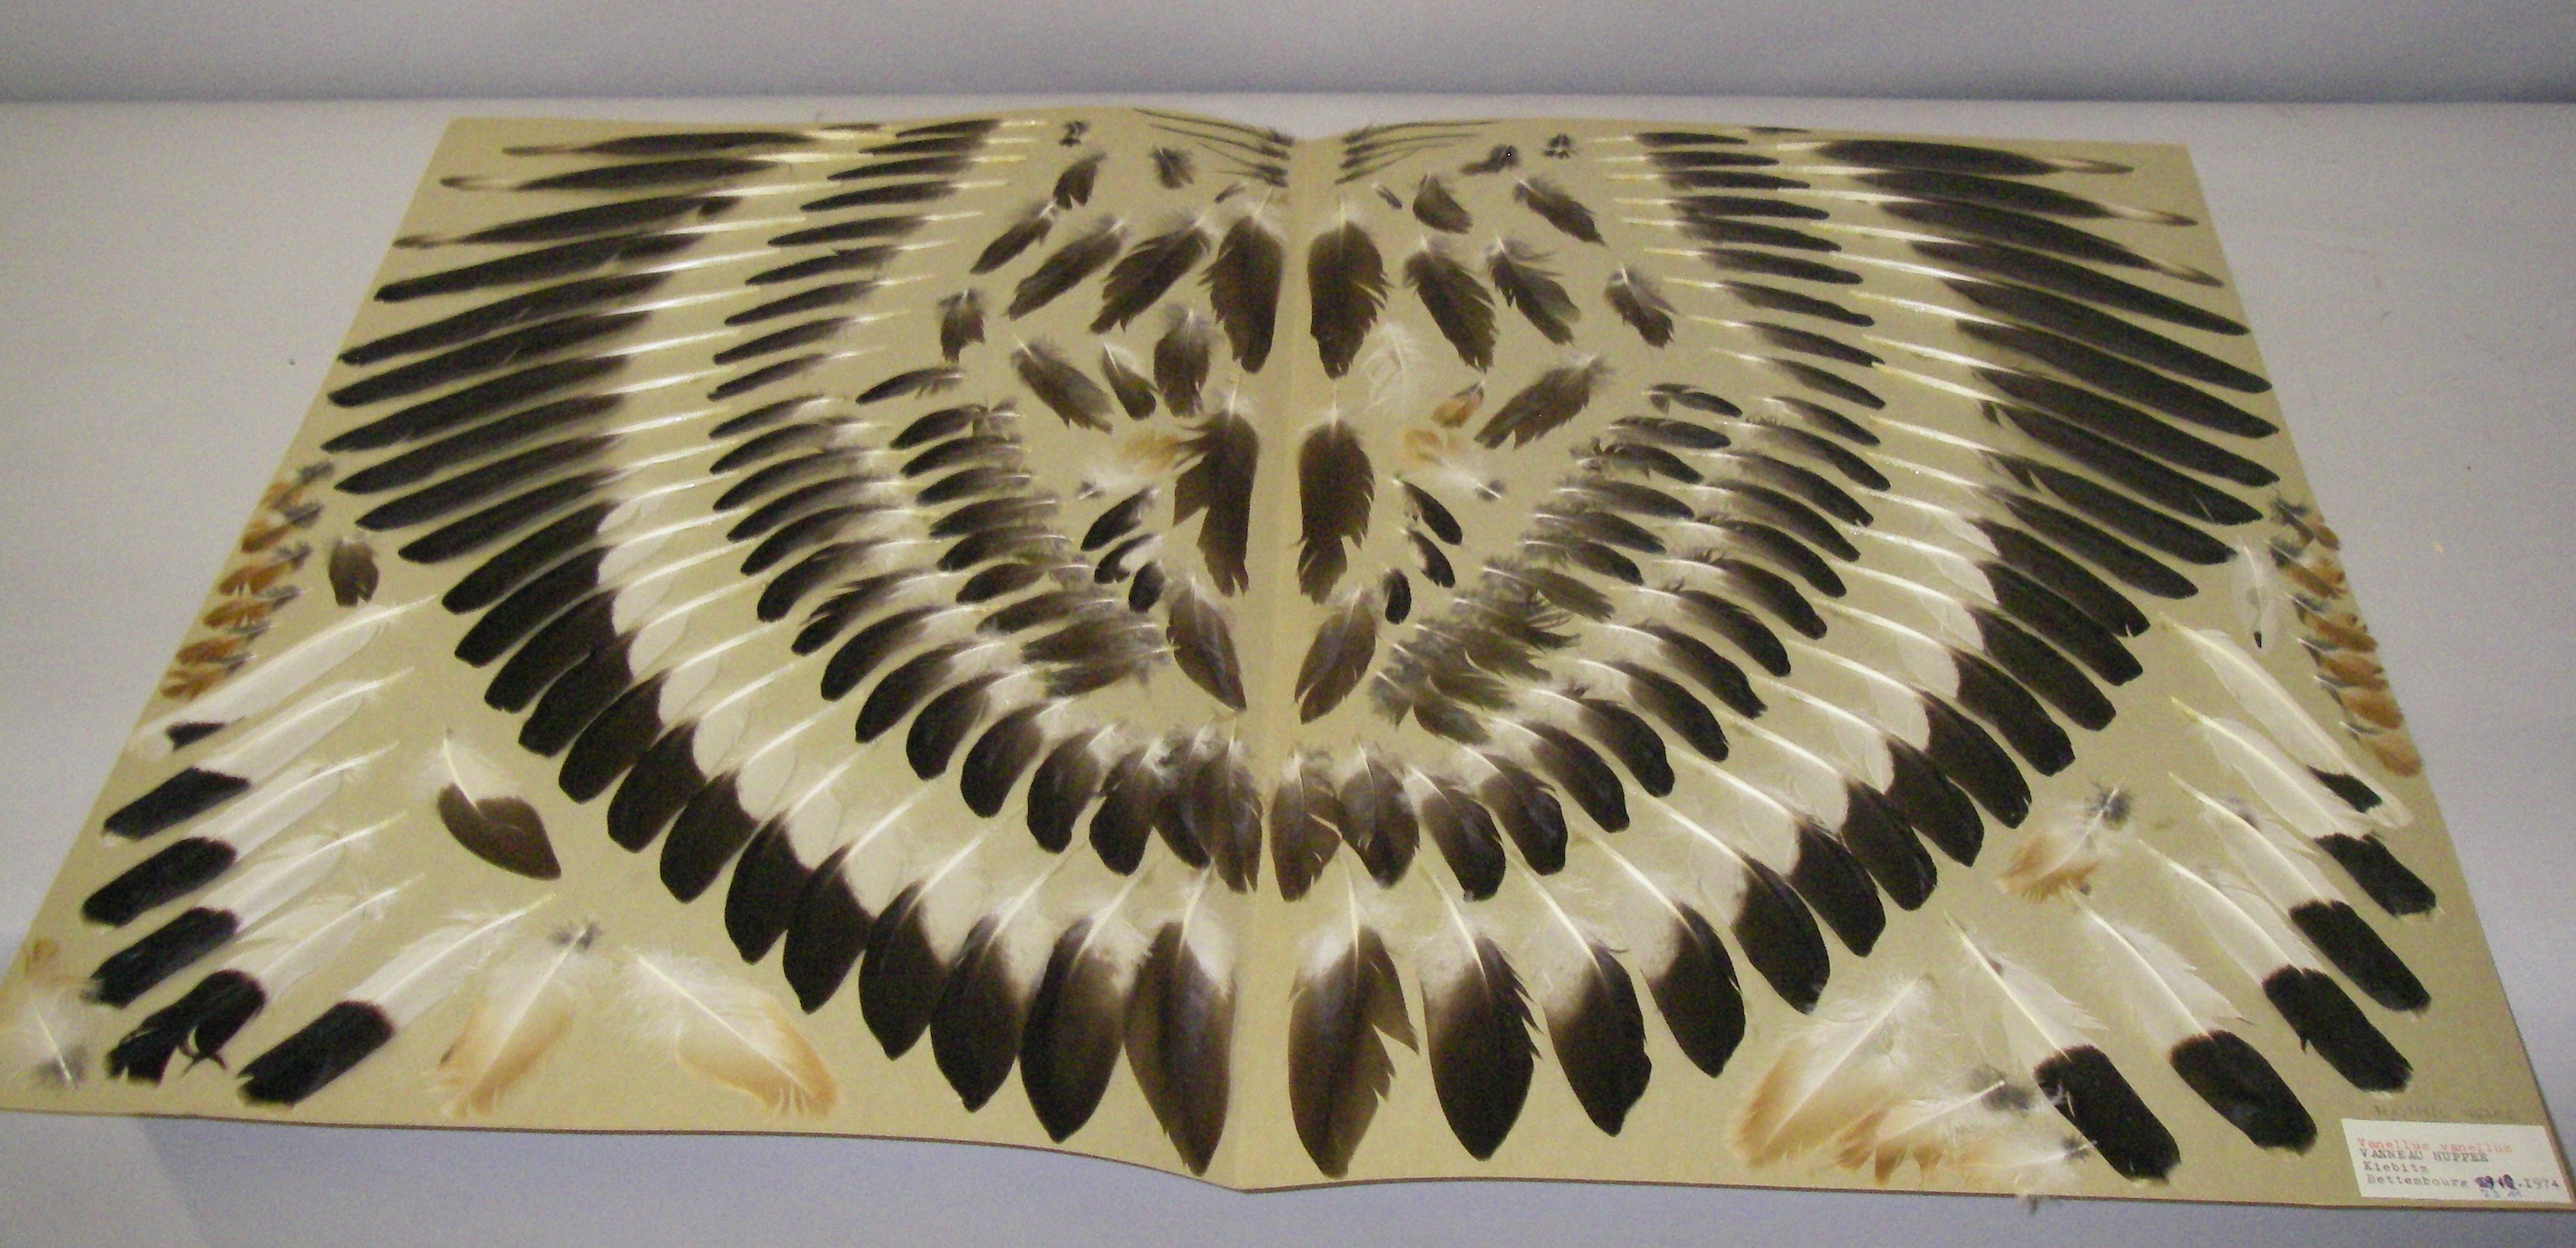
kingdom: Animalia
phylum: Chordata
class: Aves
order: Charadriiformes
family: Charadriidae
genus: Vanellus
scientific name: Vanellus vanellus
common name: Northern lapwing
